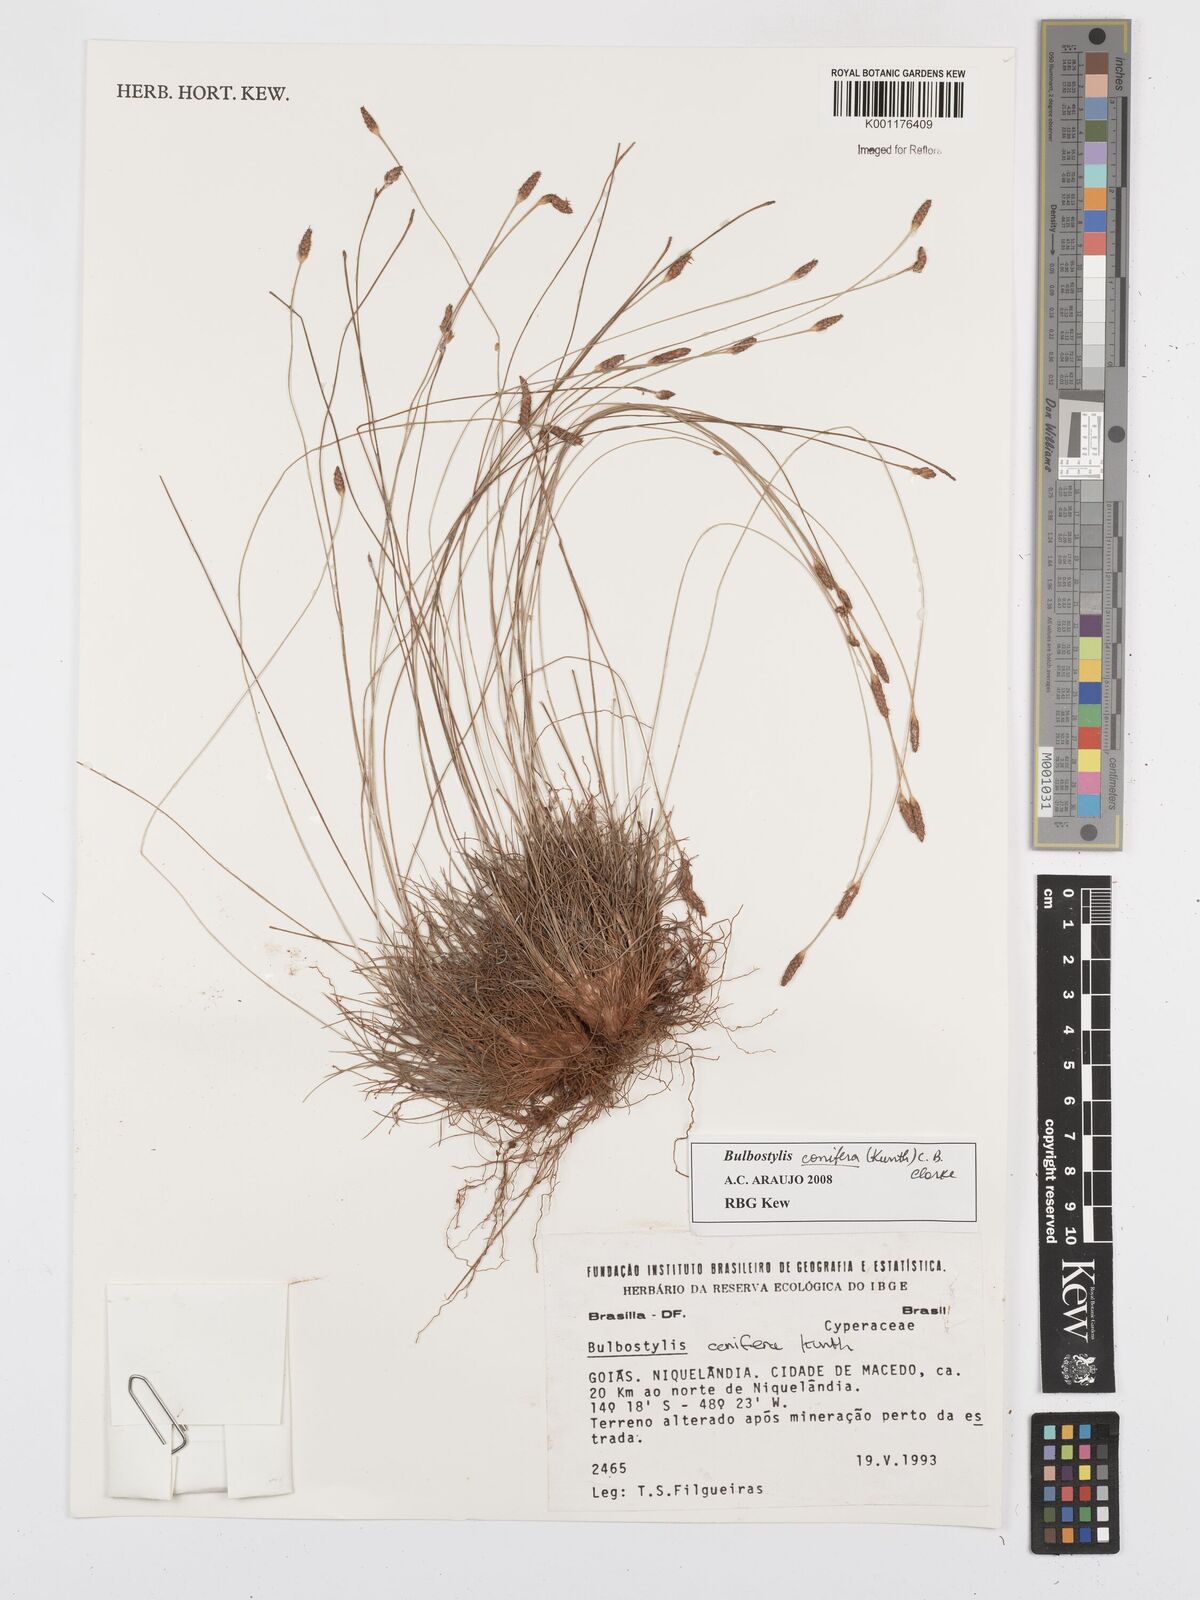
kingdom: Plantae
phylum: Tracheophyta
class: Liliopsida
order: Poales
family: Cyperaceae
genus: Bulbostylis
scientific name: Bulbostylis conifera
